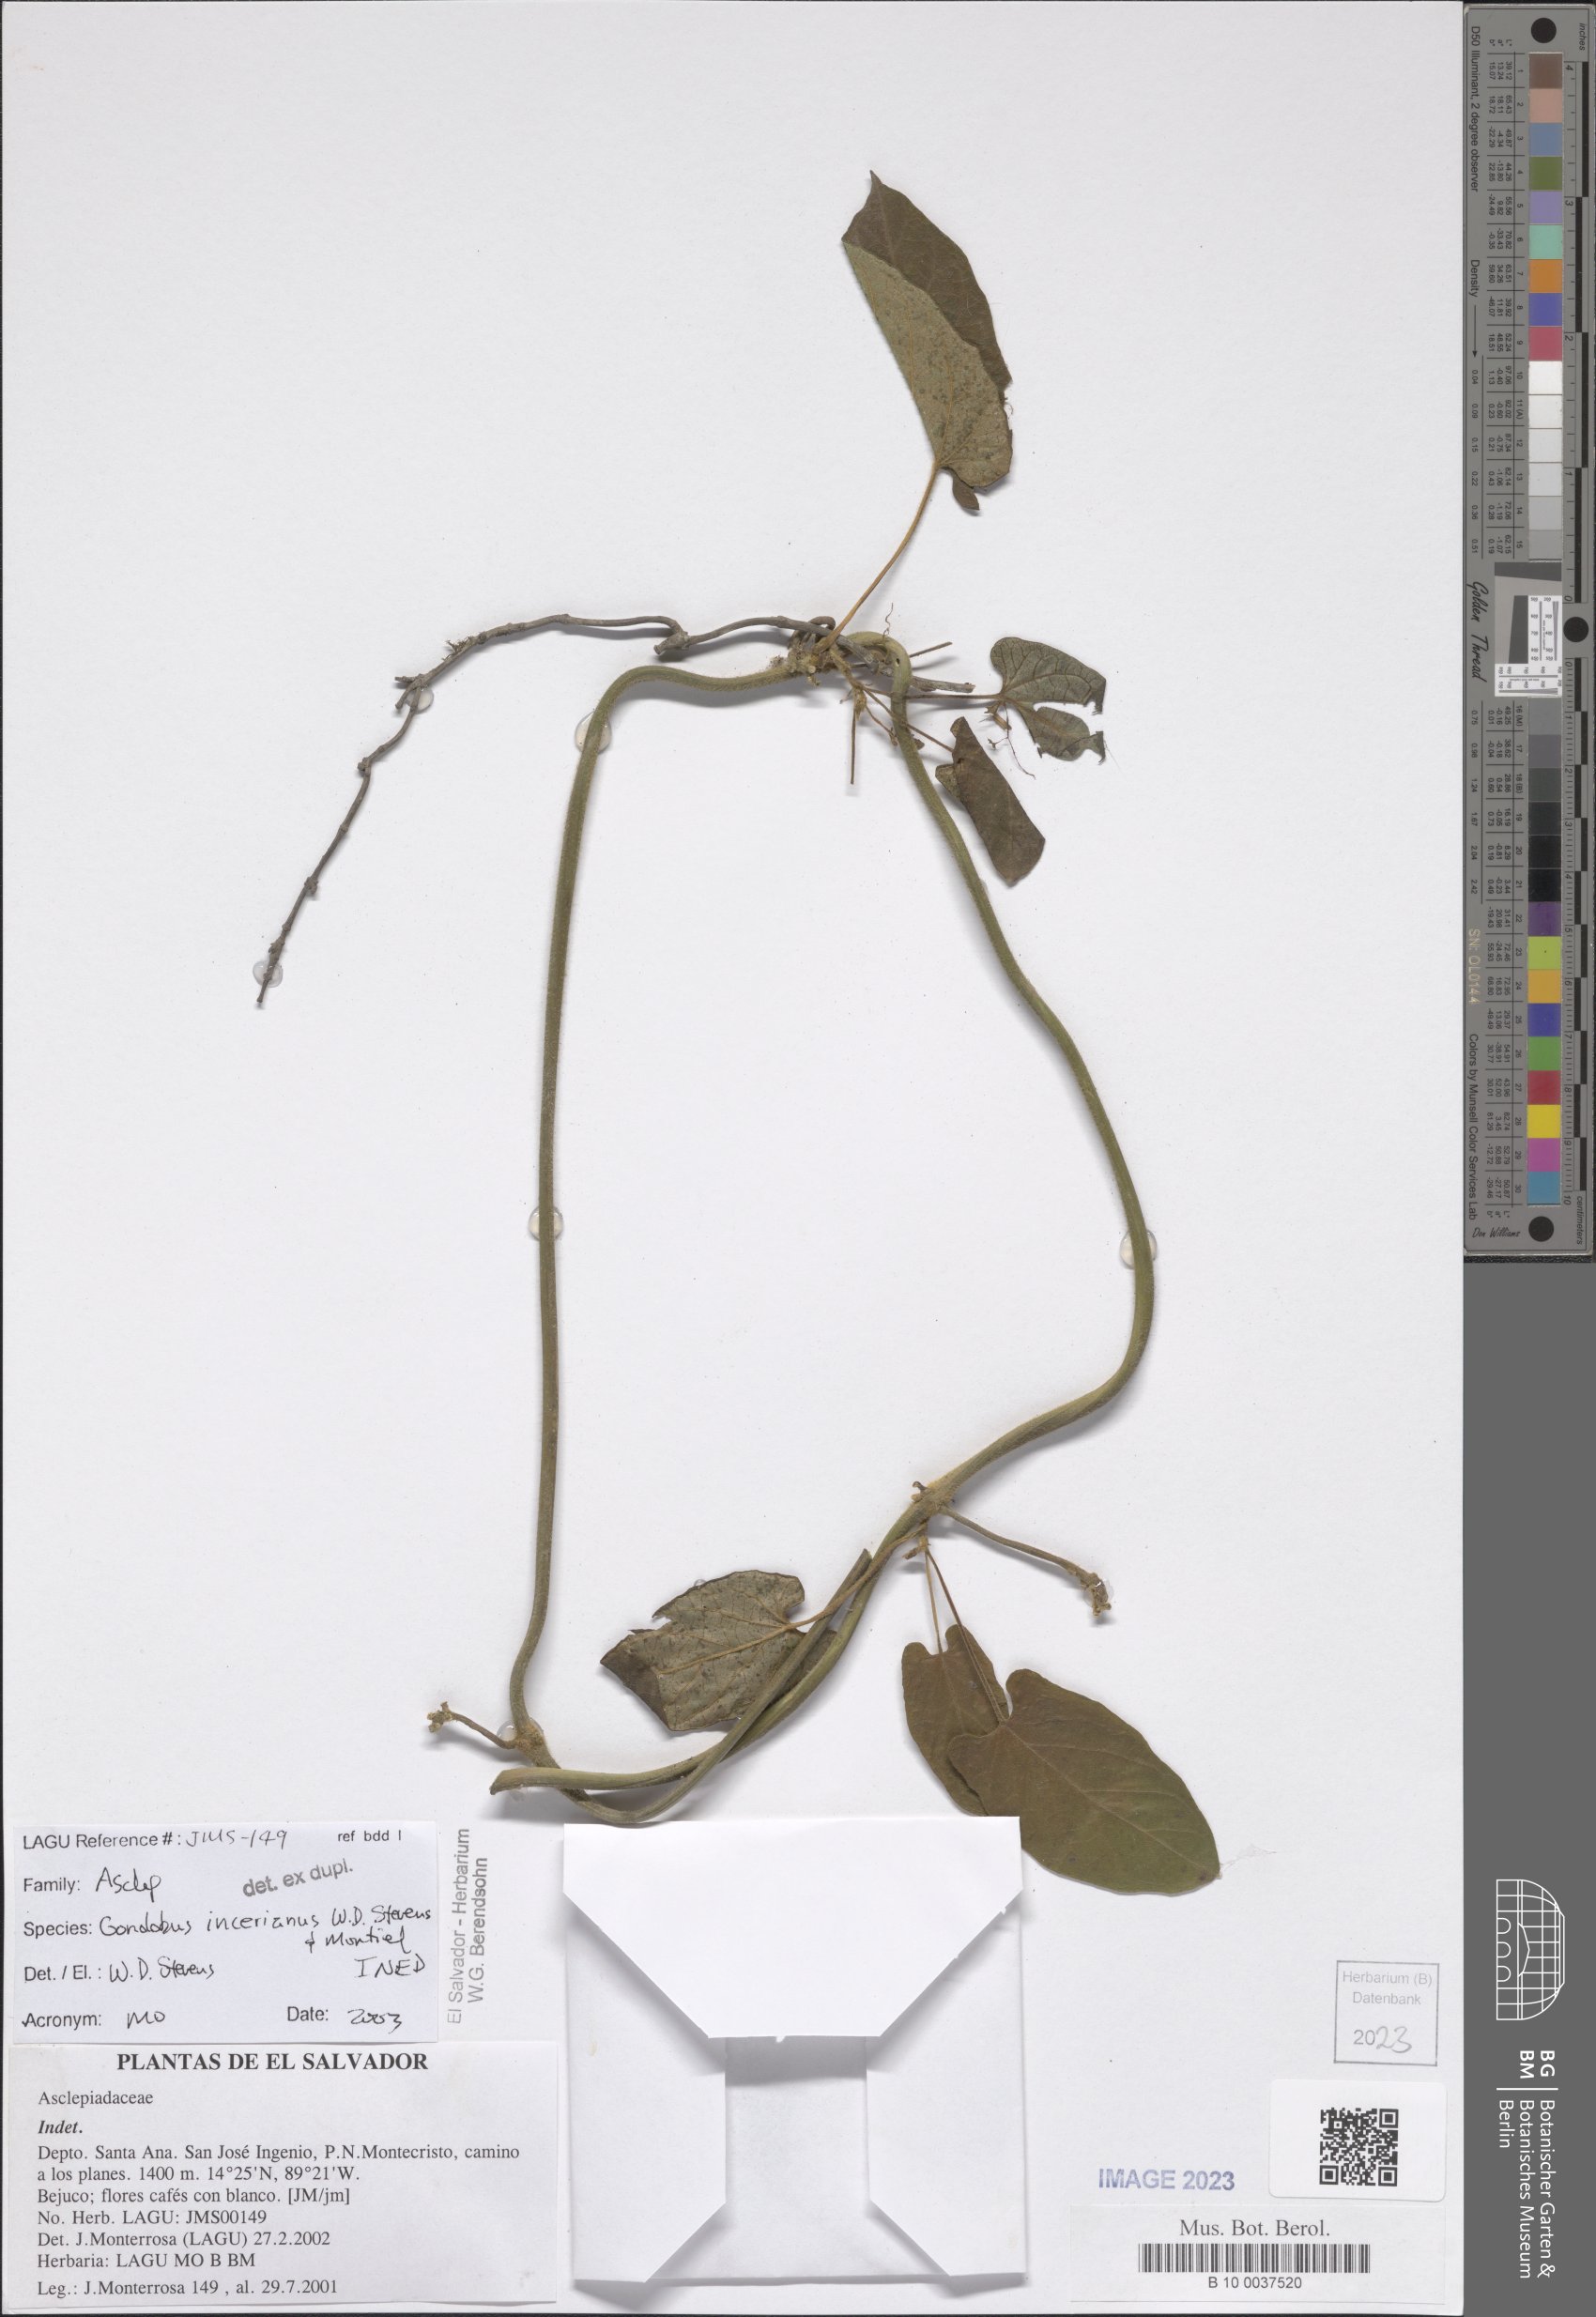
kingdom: Plantae
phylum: Tracheophyta
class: Magnoliopsida
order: Gentianales
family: Apocynaceae
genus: Gonolobus
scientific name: Gonolobus incerianus
